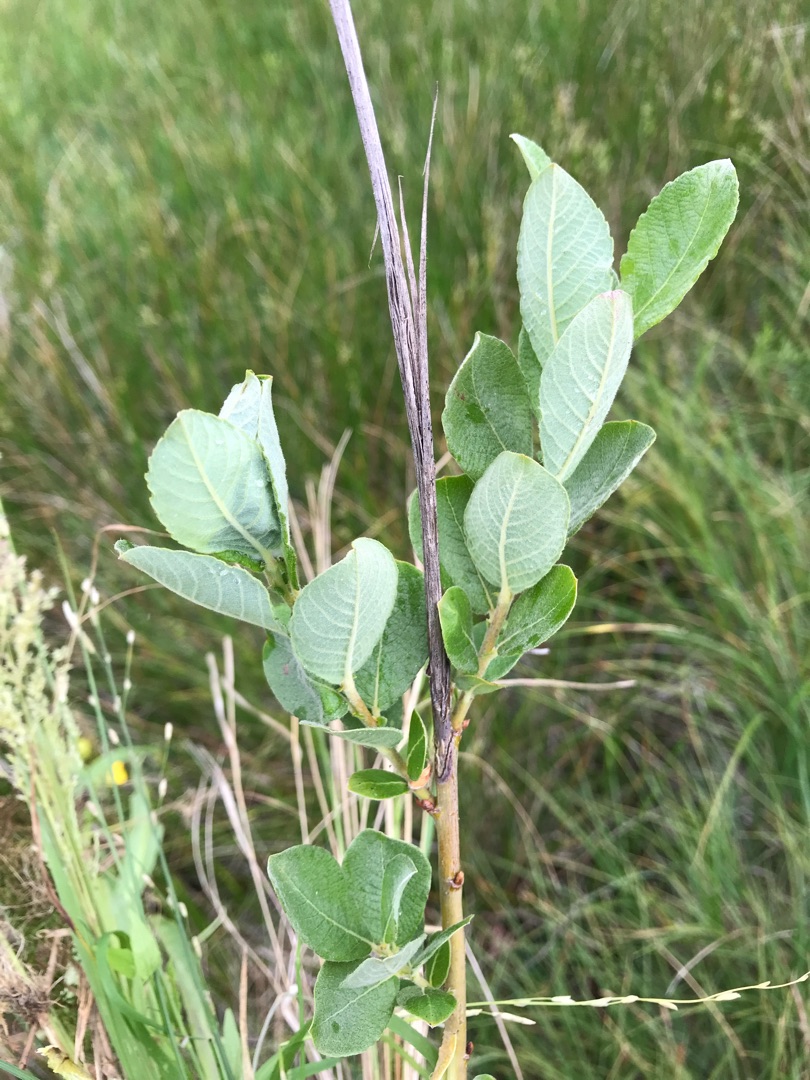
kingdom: Plantae
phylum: Tracheophyta
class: Magnoliopsida
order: Malpighiales
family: Salicaceae
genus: Salix
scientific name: Salix aurita
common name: Øret pil
